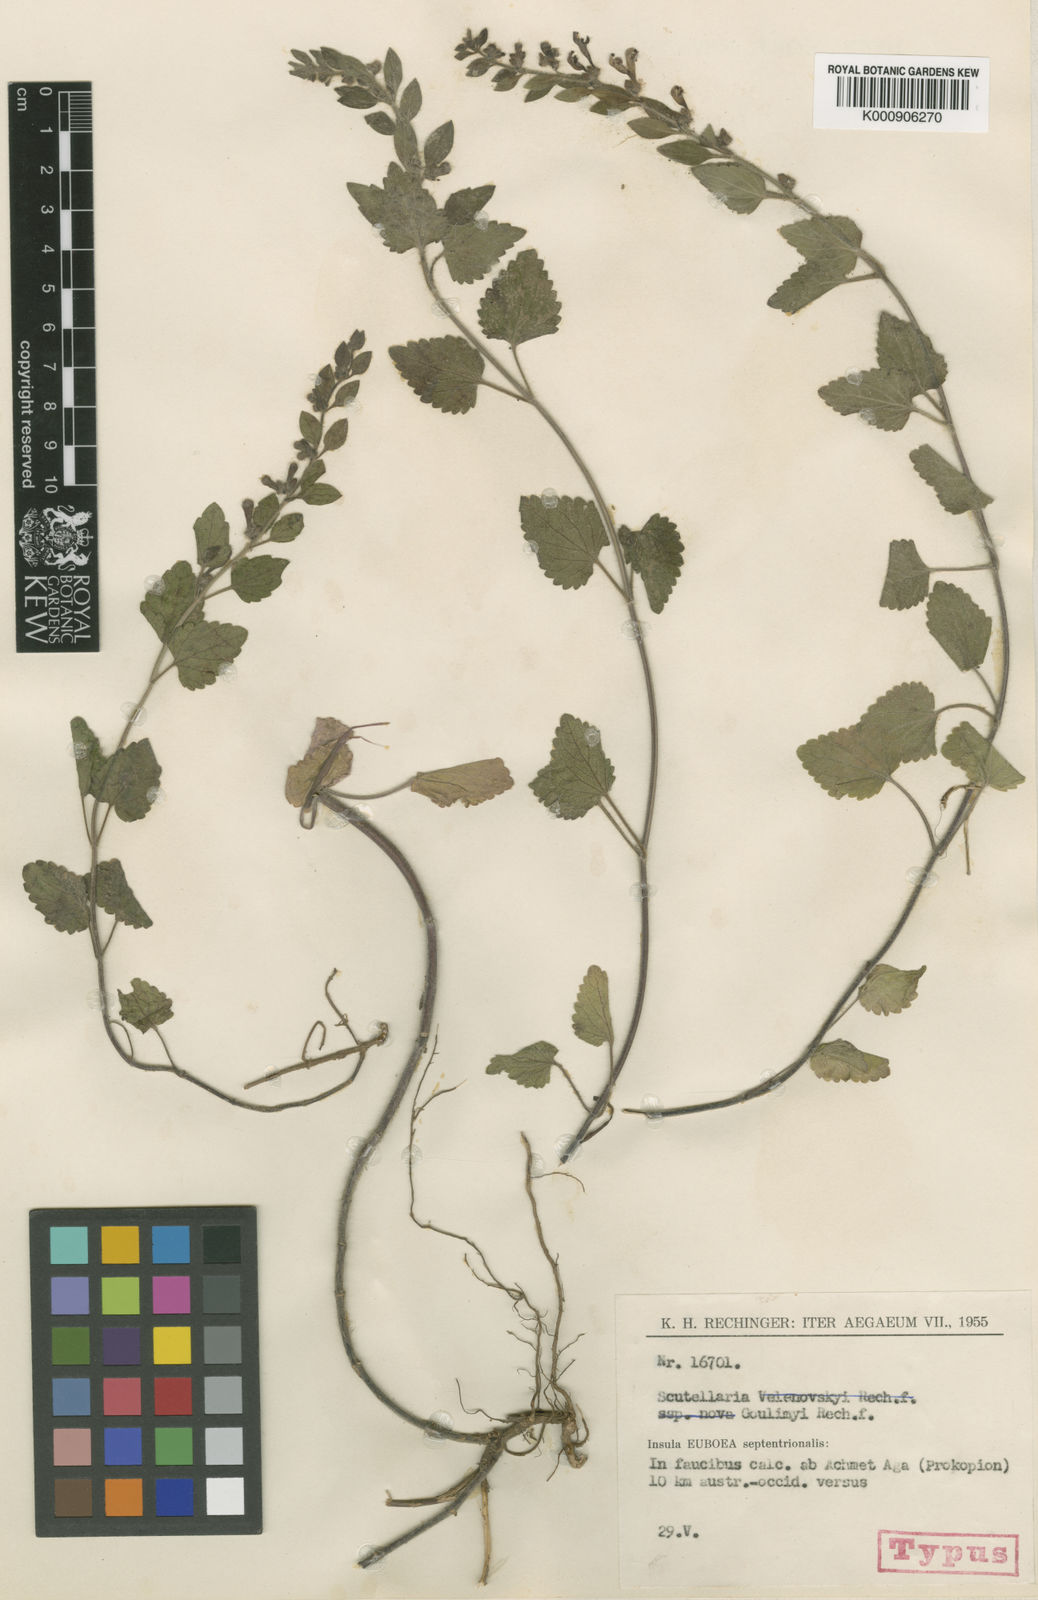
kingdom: Plantae
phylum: Tracheophyta
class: Magnoliopsida
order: Lamiales
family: Lamiaceae
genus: Scutellaria
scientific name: Scutellaria albida
